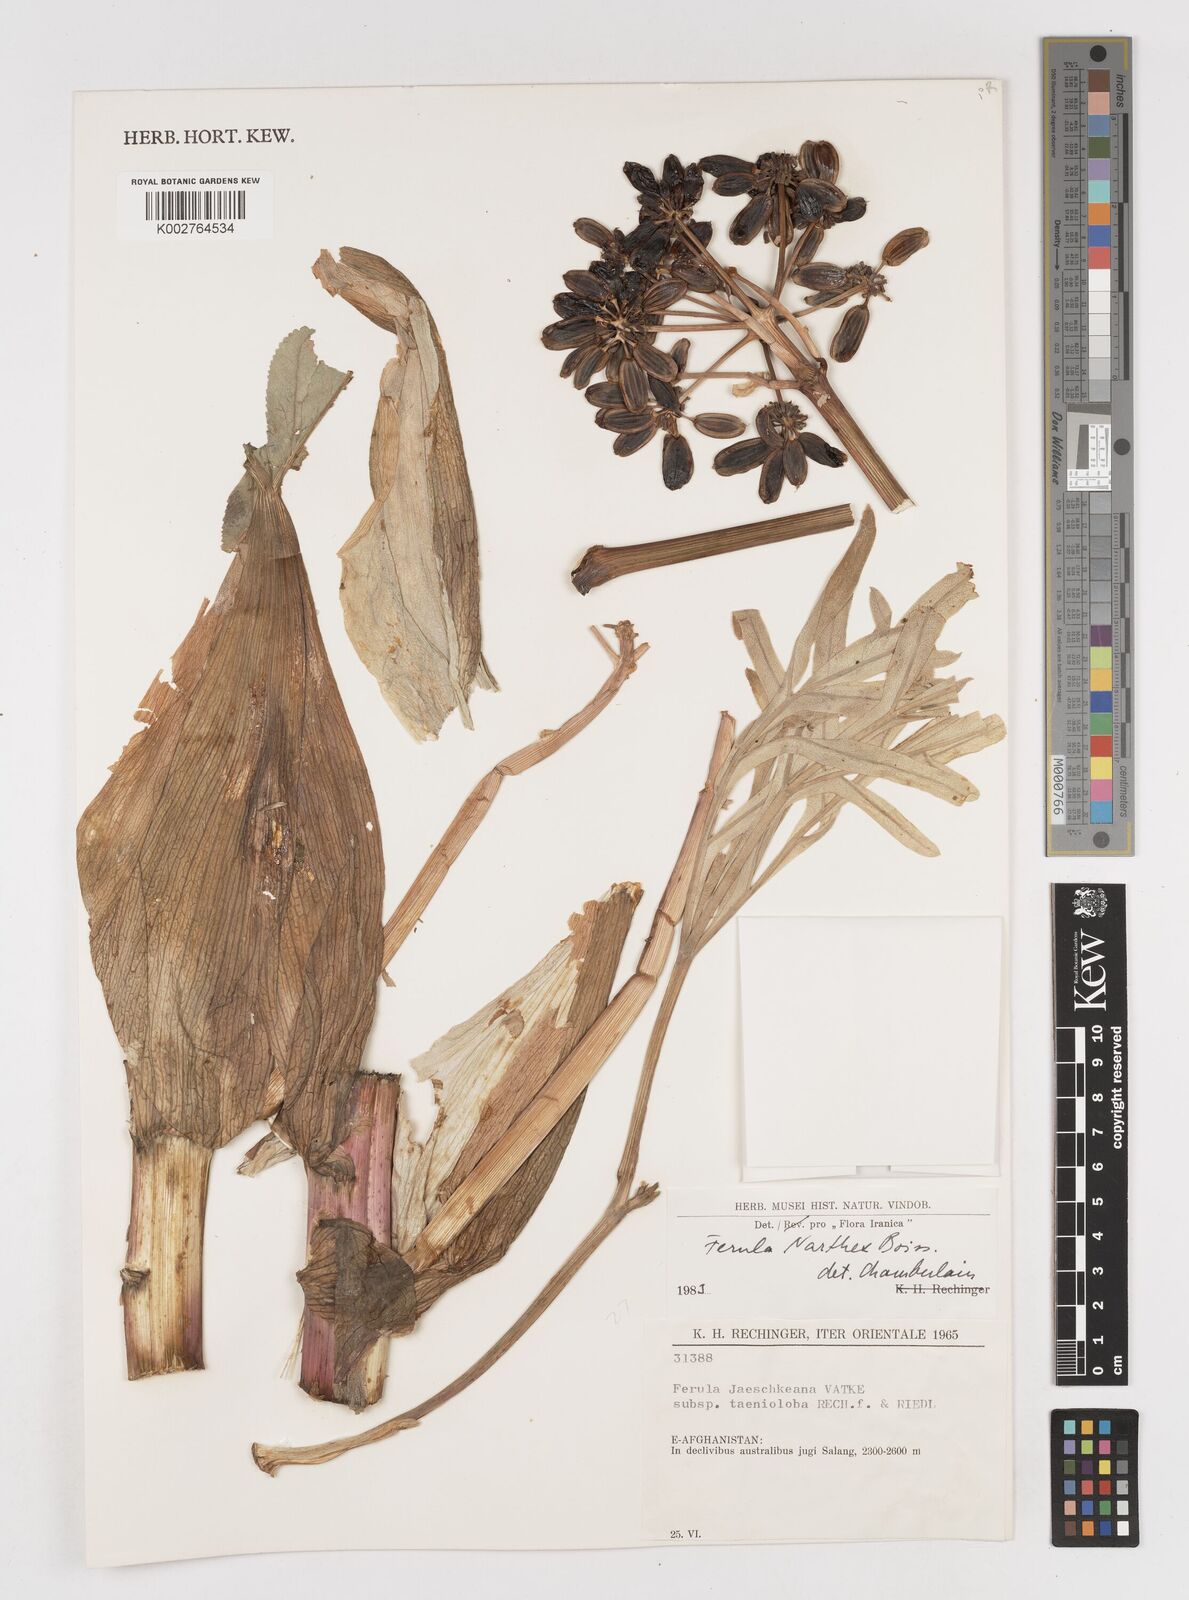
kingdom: Plantae
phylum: Tracheophyta
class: Magnoliopsida
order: Apiales
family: Apiaceae
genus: Ferula
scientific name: Ferula narthex
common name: Hing asafetida
